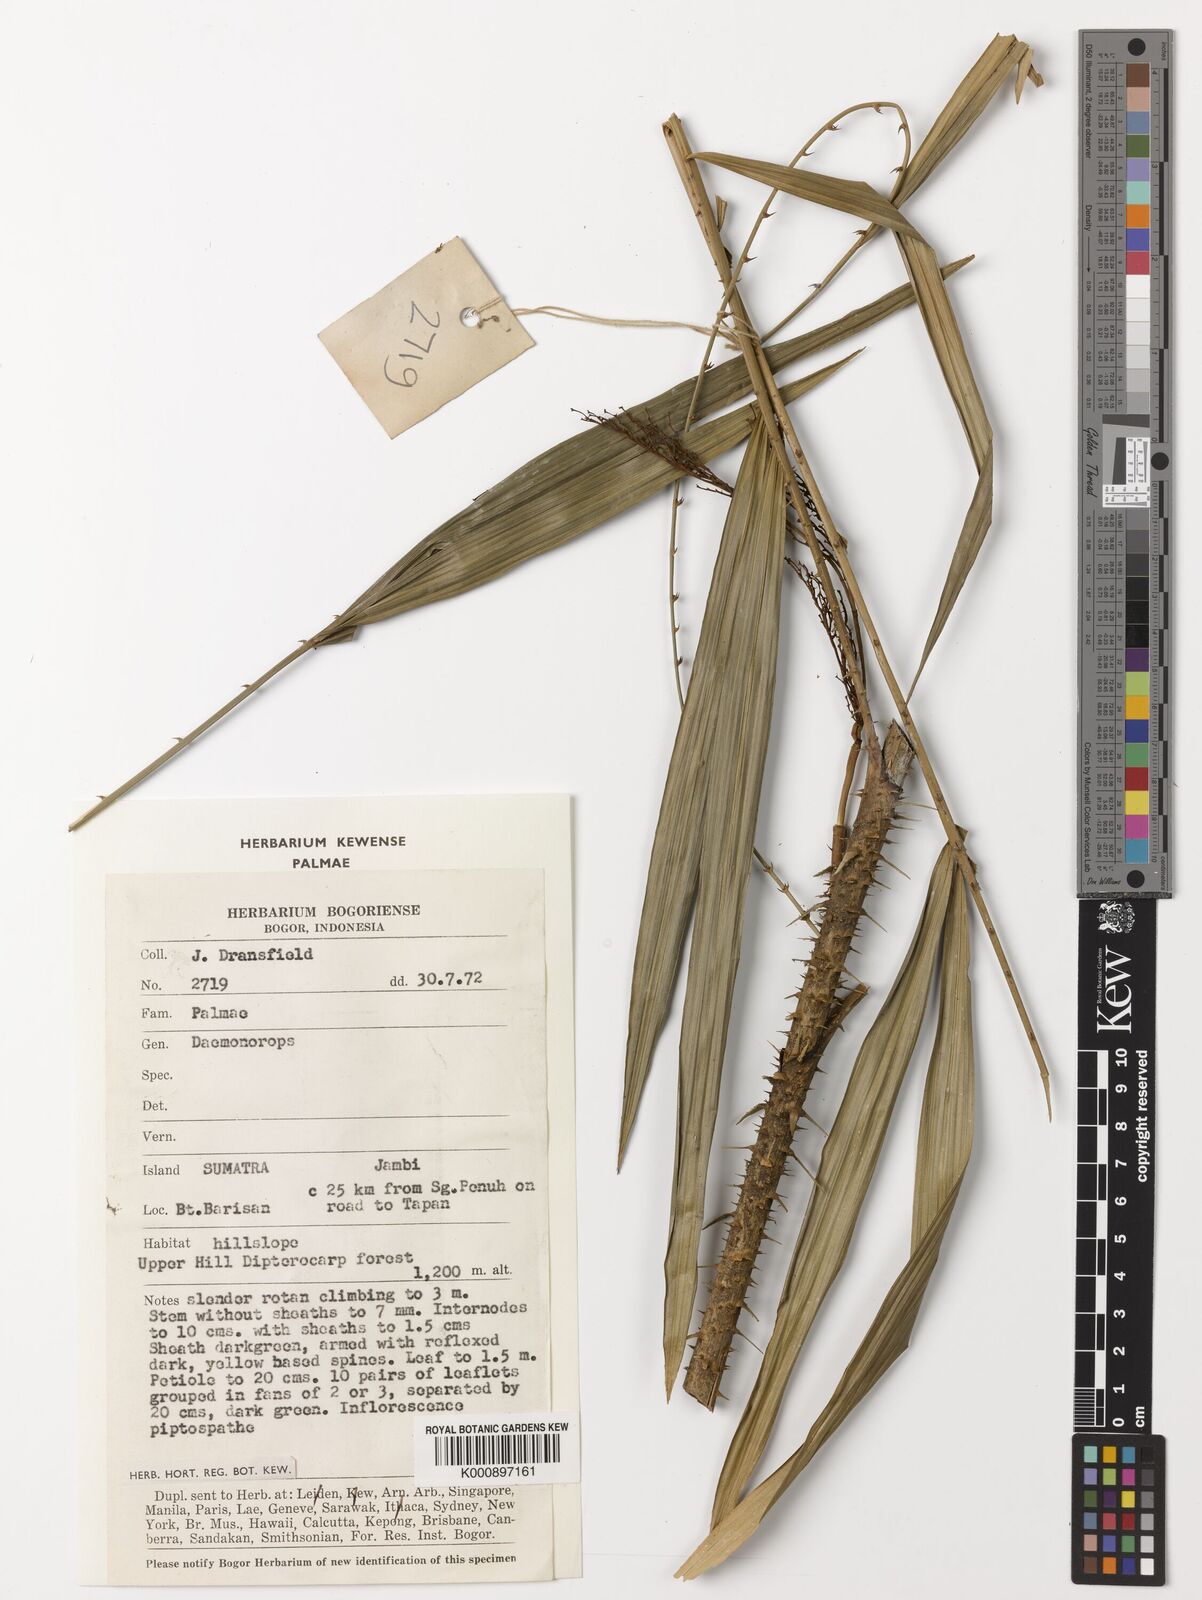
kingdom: Plantae
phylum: Tracheophyta
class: Liliopsida
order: Arecales
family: Arecaceae
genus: Daemonorops
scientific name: Daemonorops
